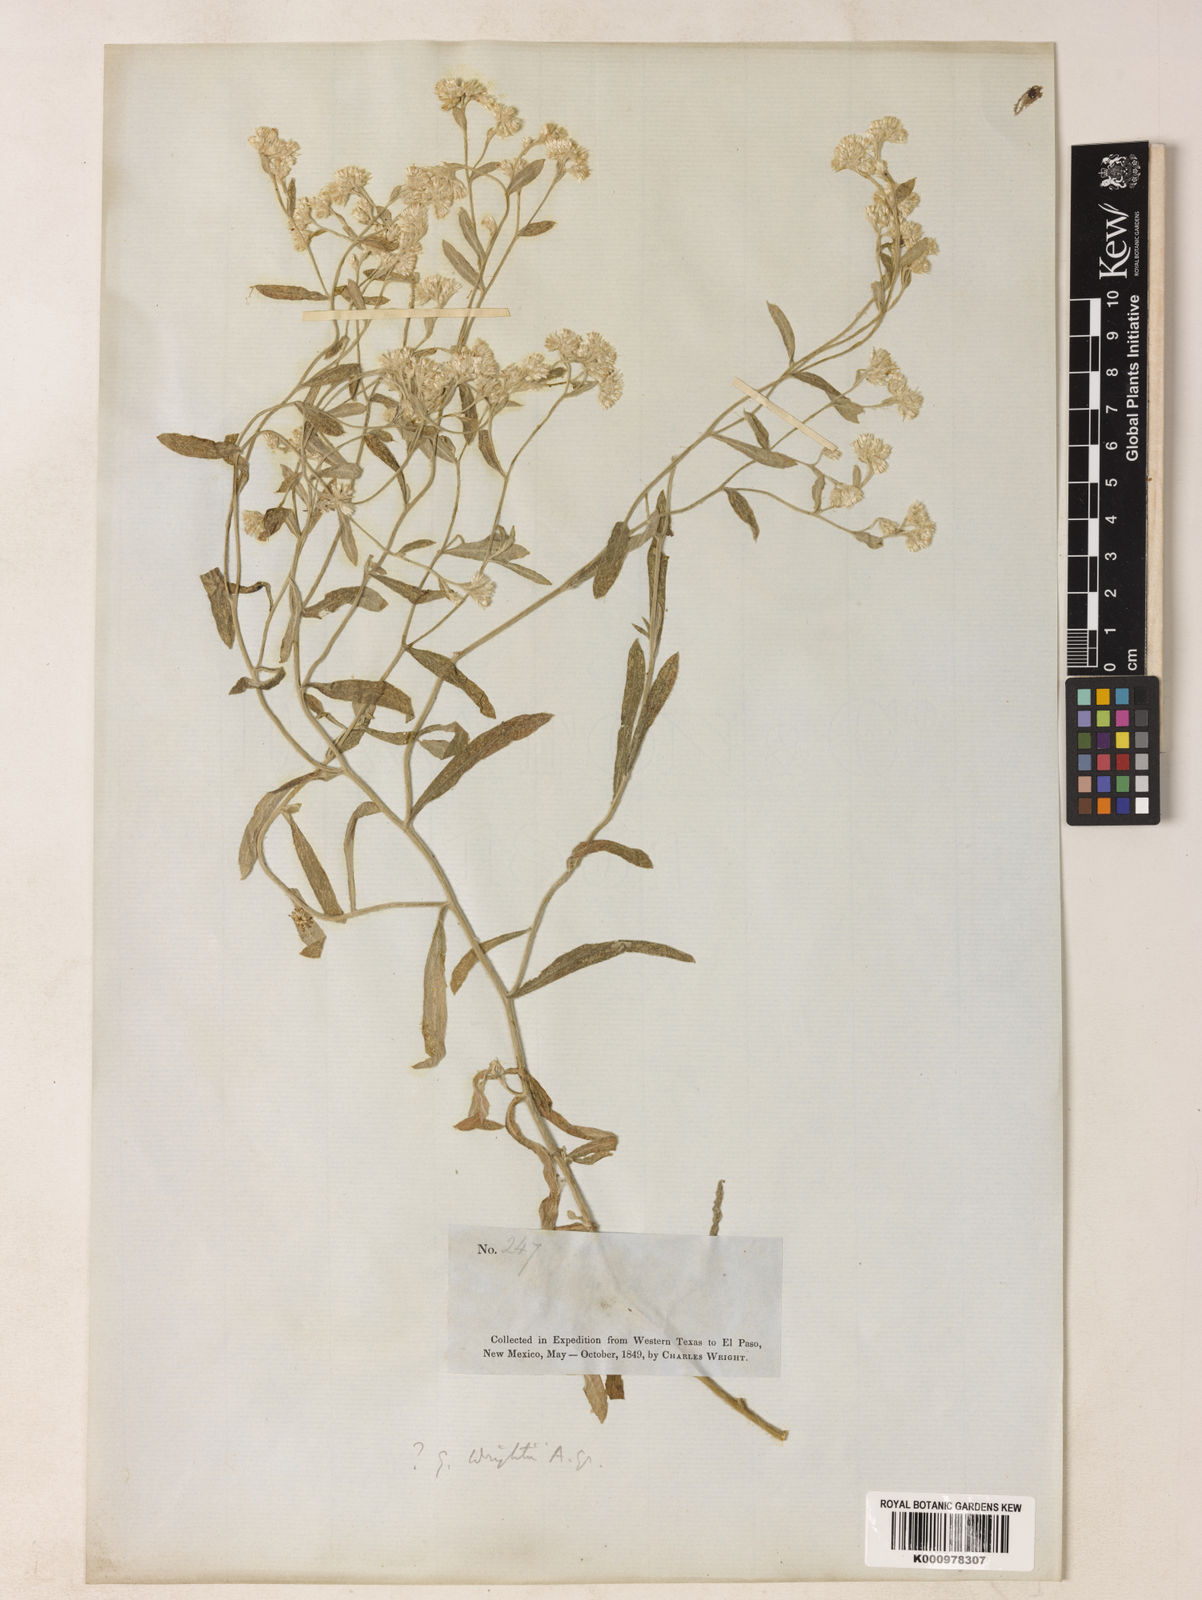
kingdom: Plantae
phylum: Tracheophyta
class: Magnoliopsida
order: Asterales
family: Asteraceae
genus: Pseudognaphalium
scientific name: Pseudognaphalium canescens
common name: Wright's rabbit-tobacco
